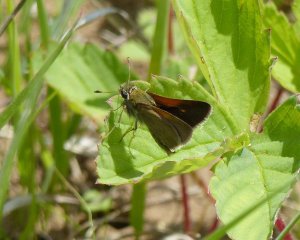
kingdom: Animalia
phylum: Arthropoda
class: Insecta
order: Lepidoptera
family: Hesperiidae
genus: Polites
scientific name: Polites themistocles
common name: Tawny-edged Skipper
